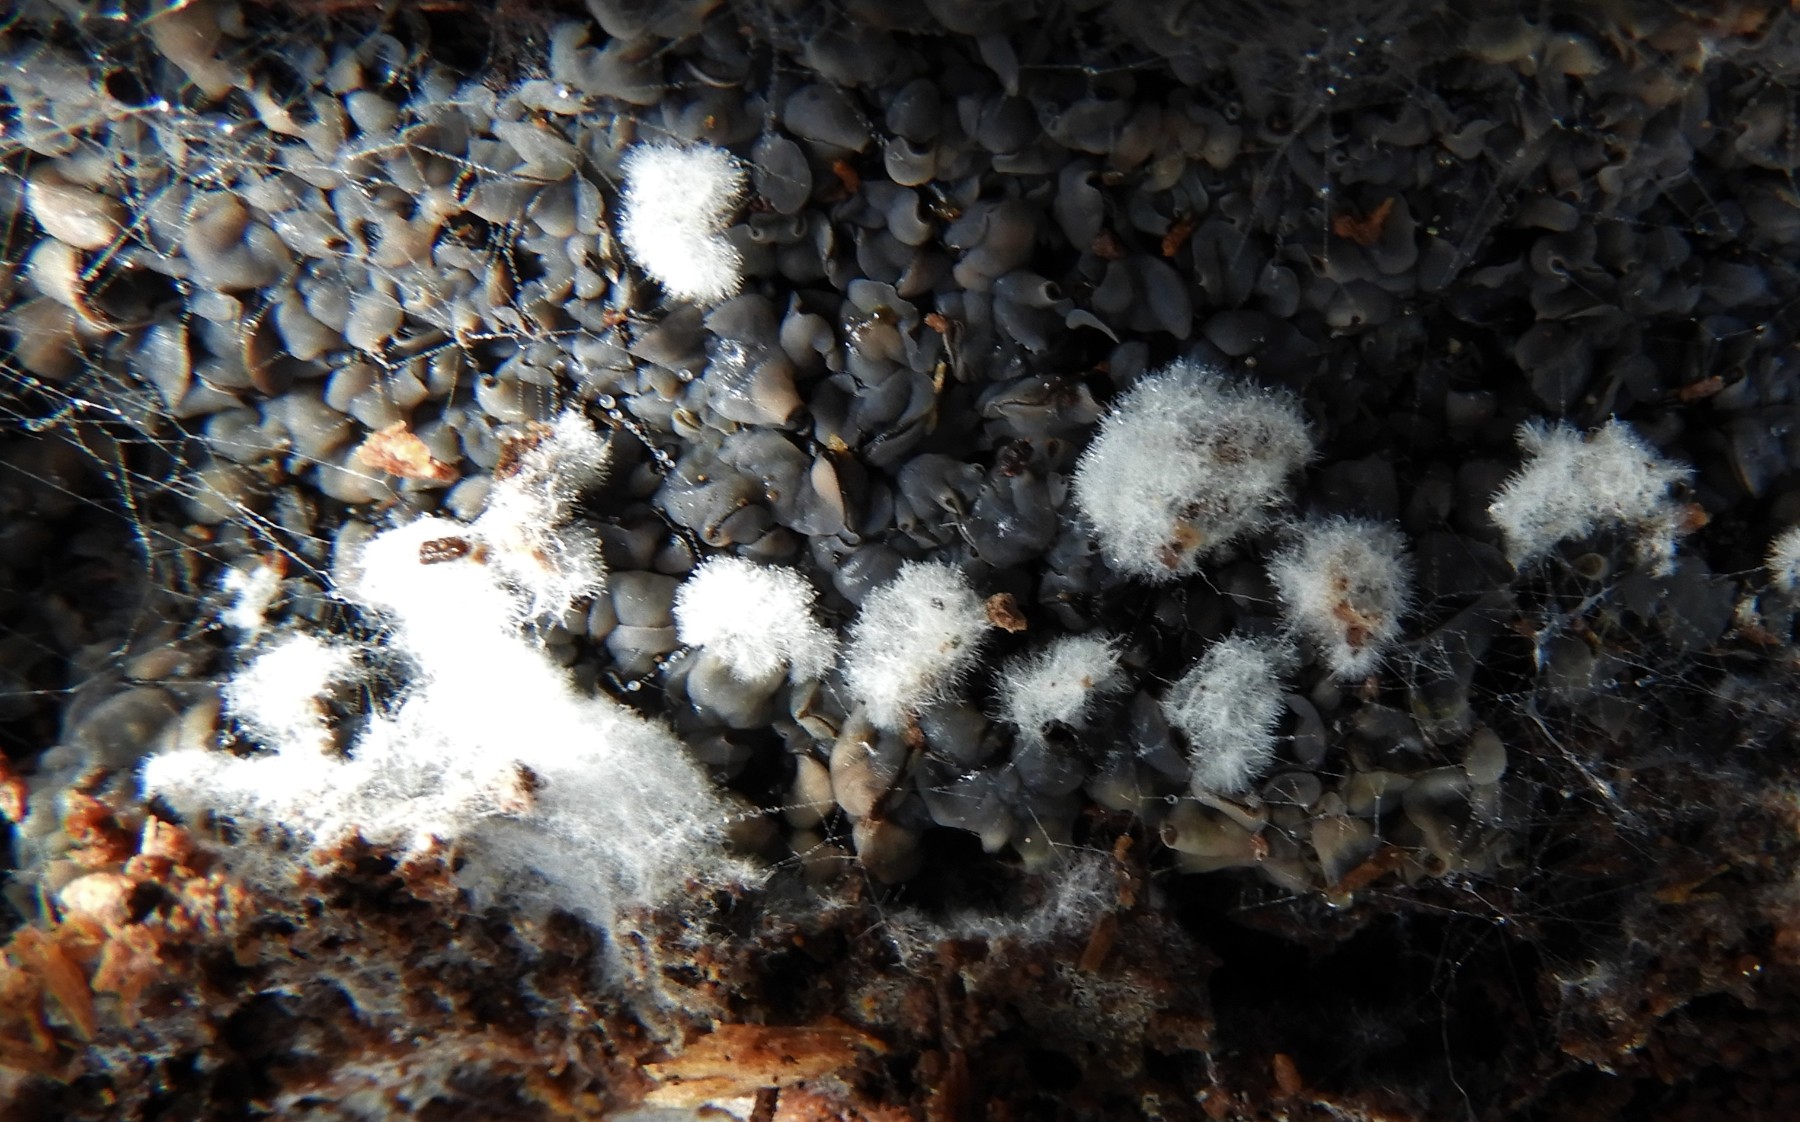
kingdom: Fungi
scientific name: Fungi
